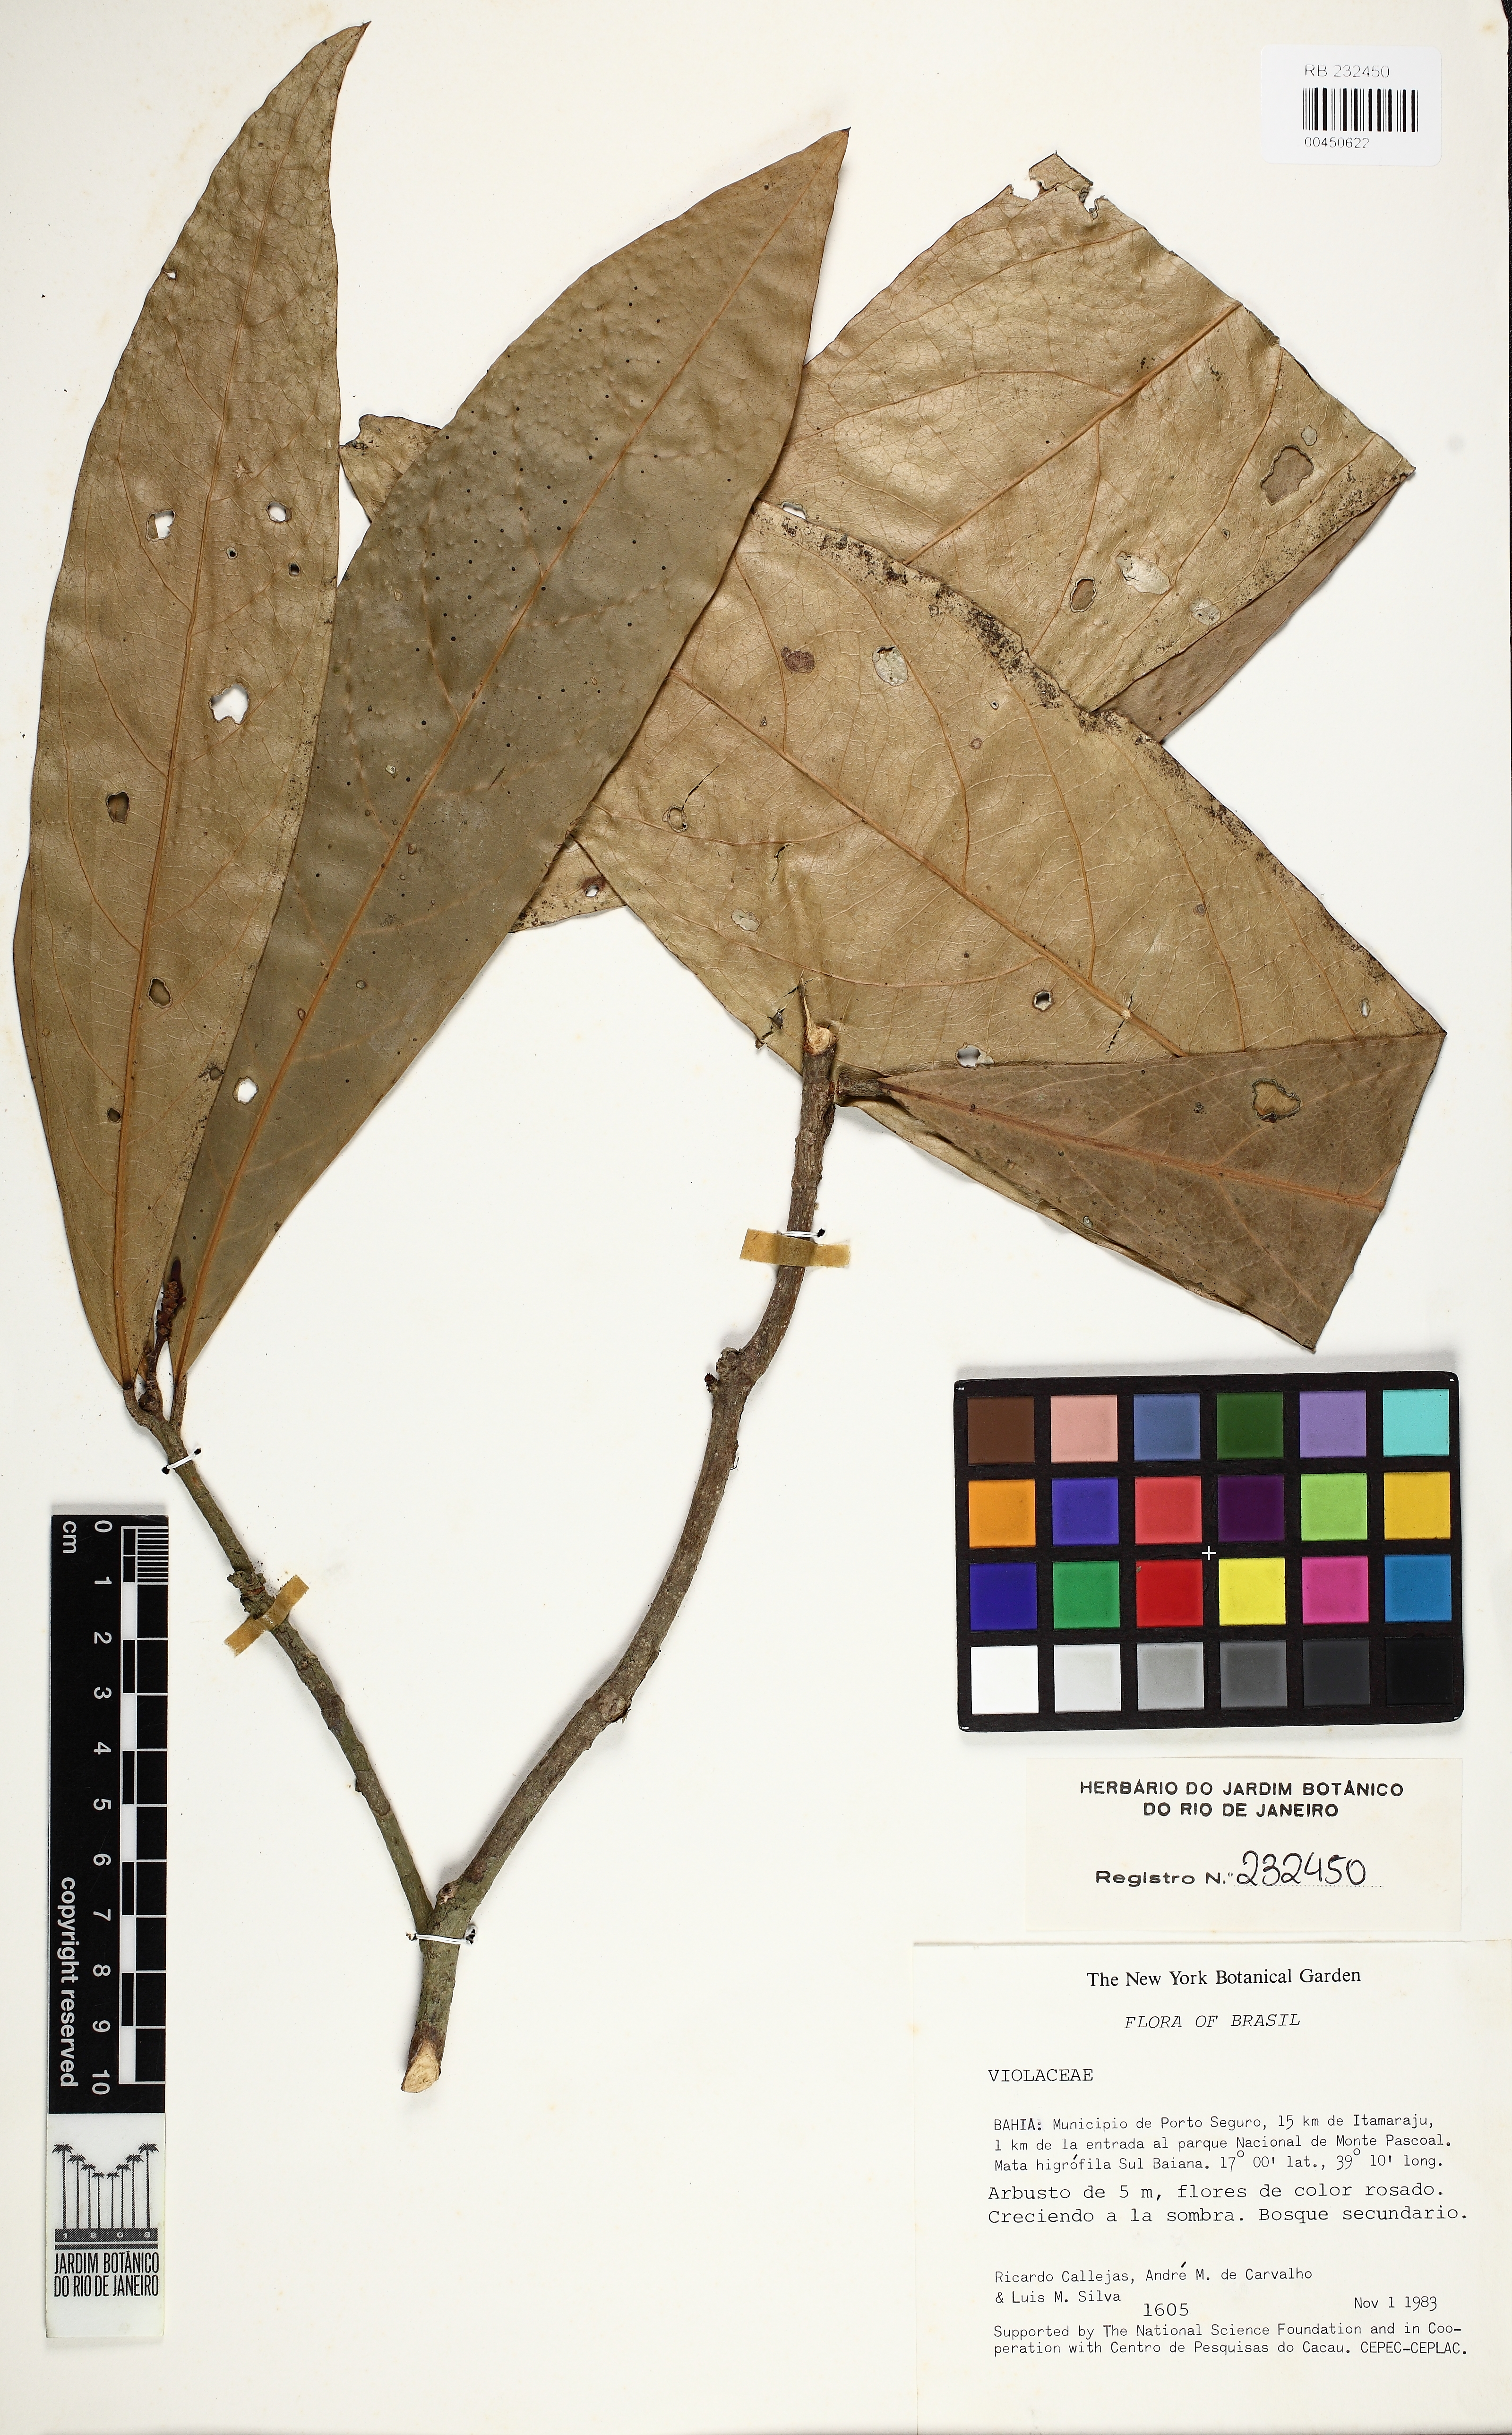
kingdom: Plantae
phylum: Tracheophyta
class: Magnoliopsida
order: Malpighiales
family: Violaceae
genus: Paypayrola
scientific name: Paypayrola blanchetiana
